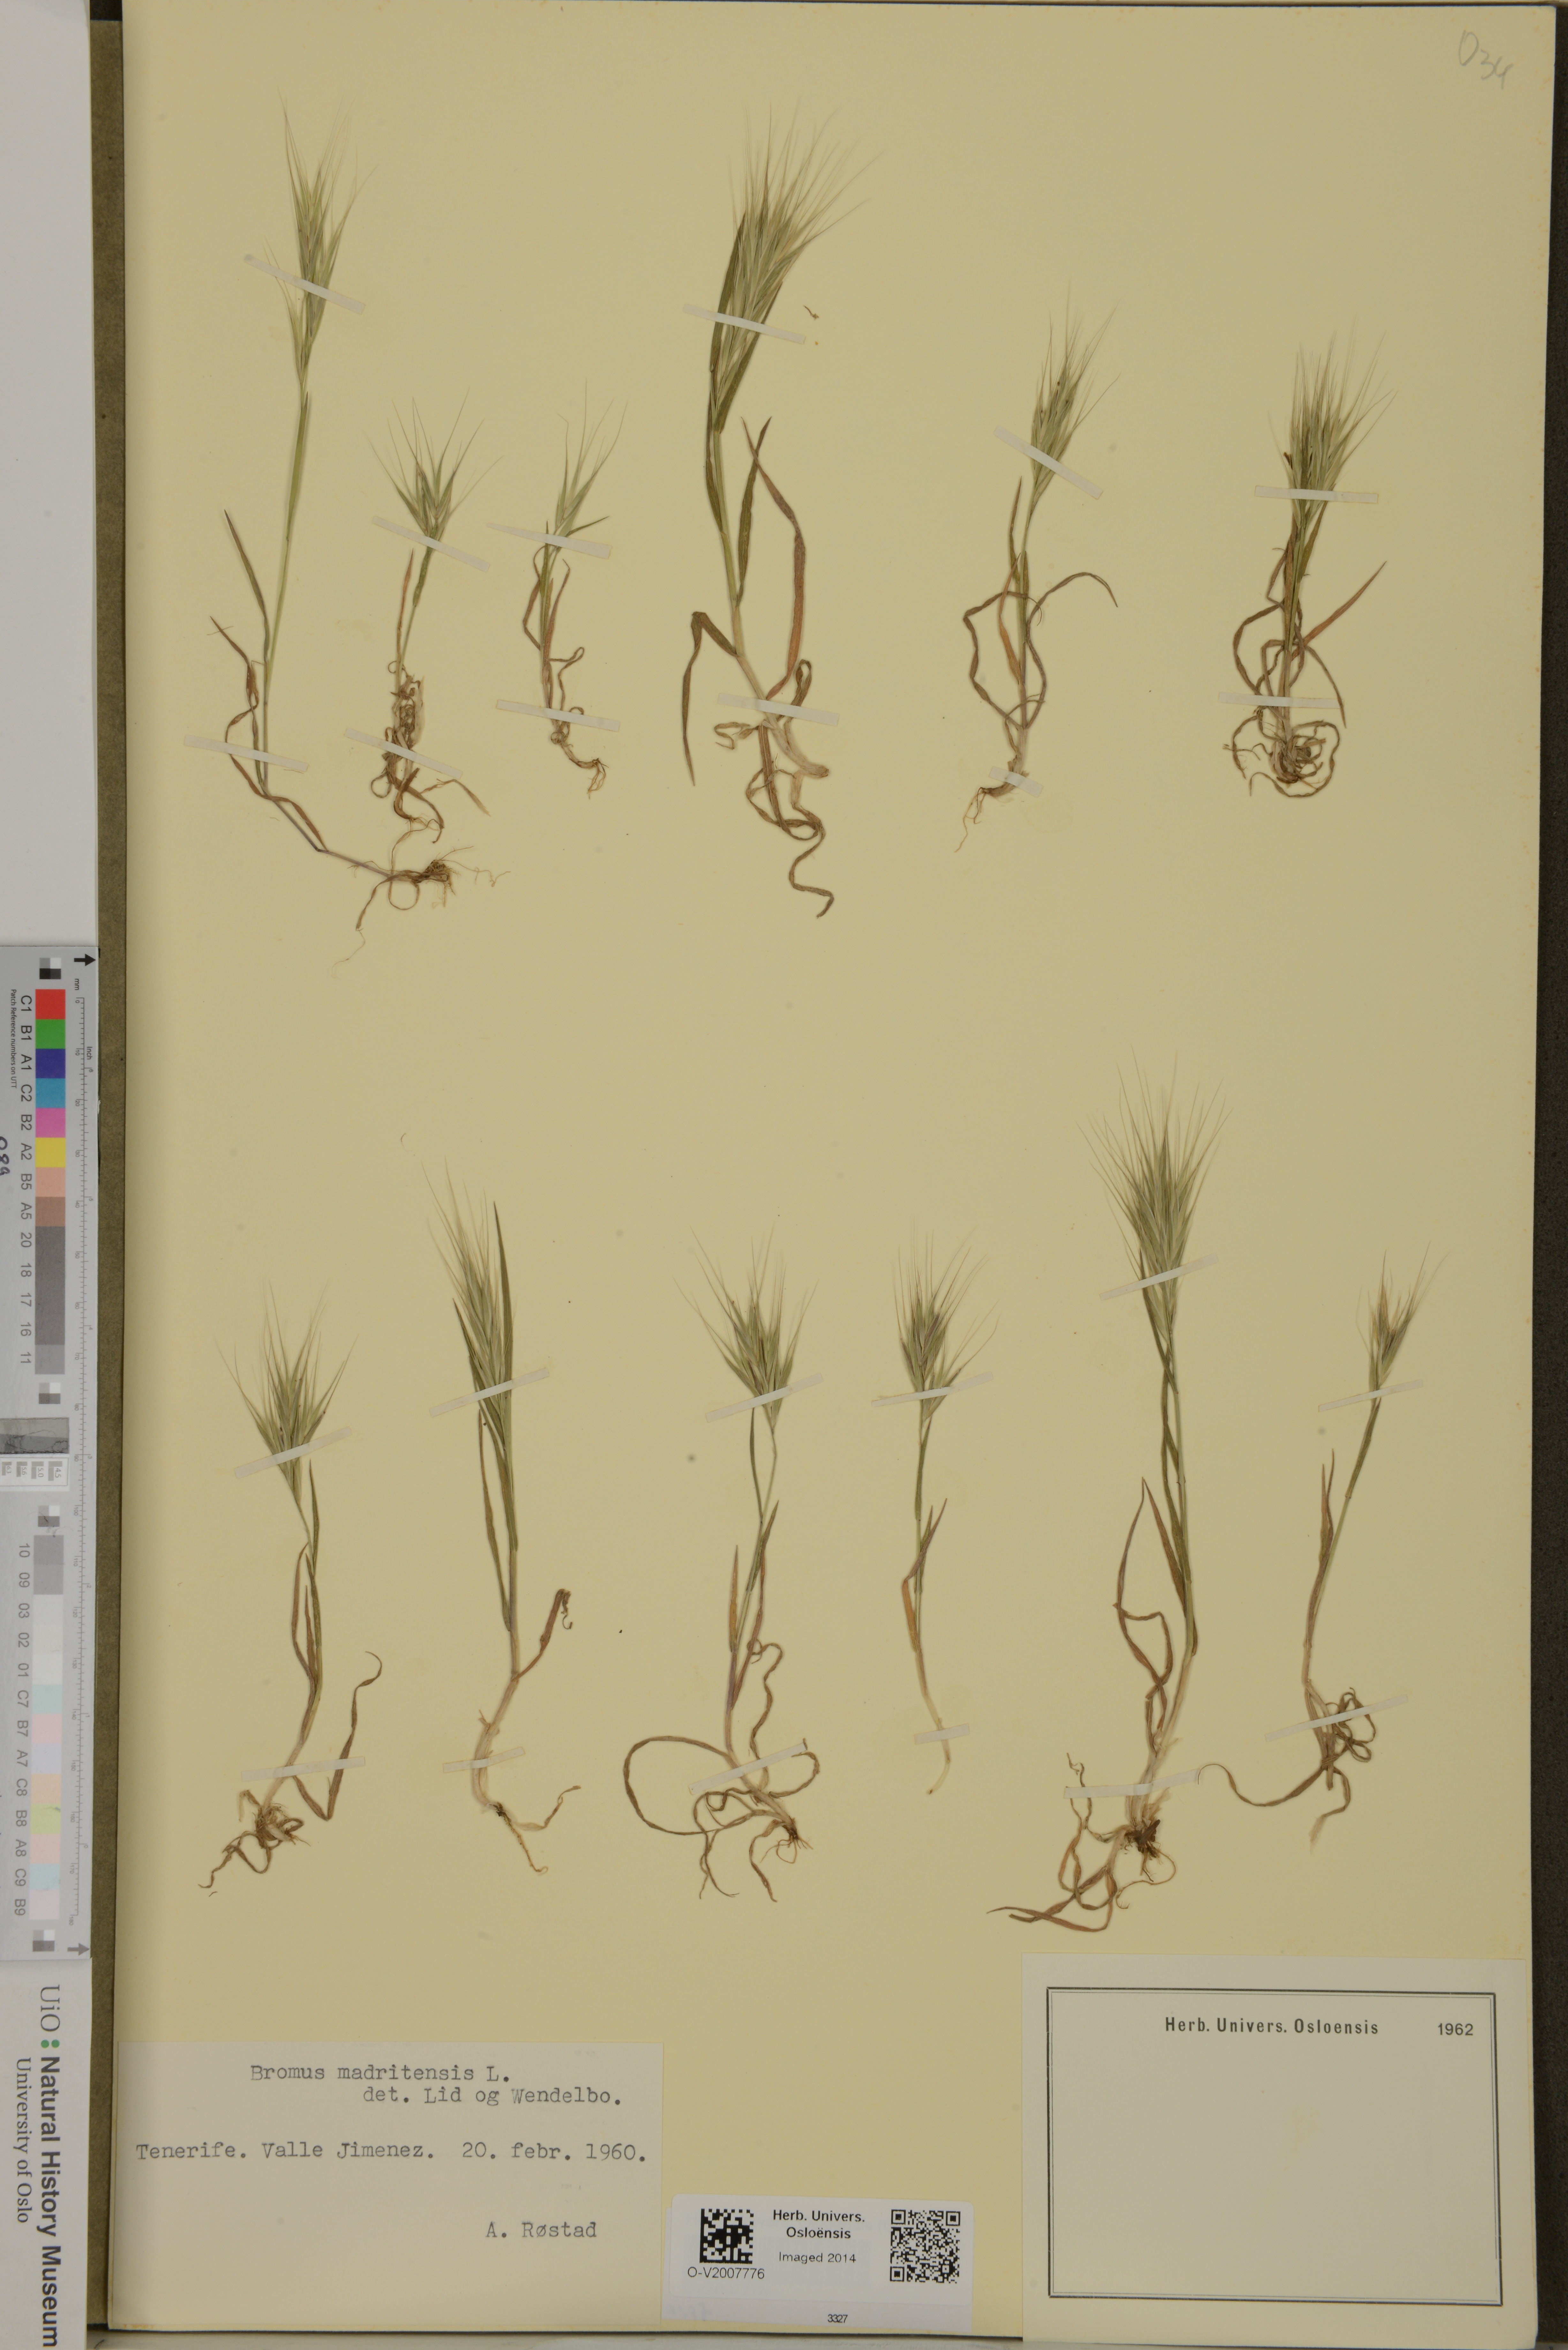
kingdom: Plantae
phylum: Tracheophyta
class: Liliopsida
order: Poales
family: Poaceae
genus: Bromus
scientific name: Bromus madritensis
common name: Compact brome
